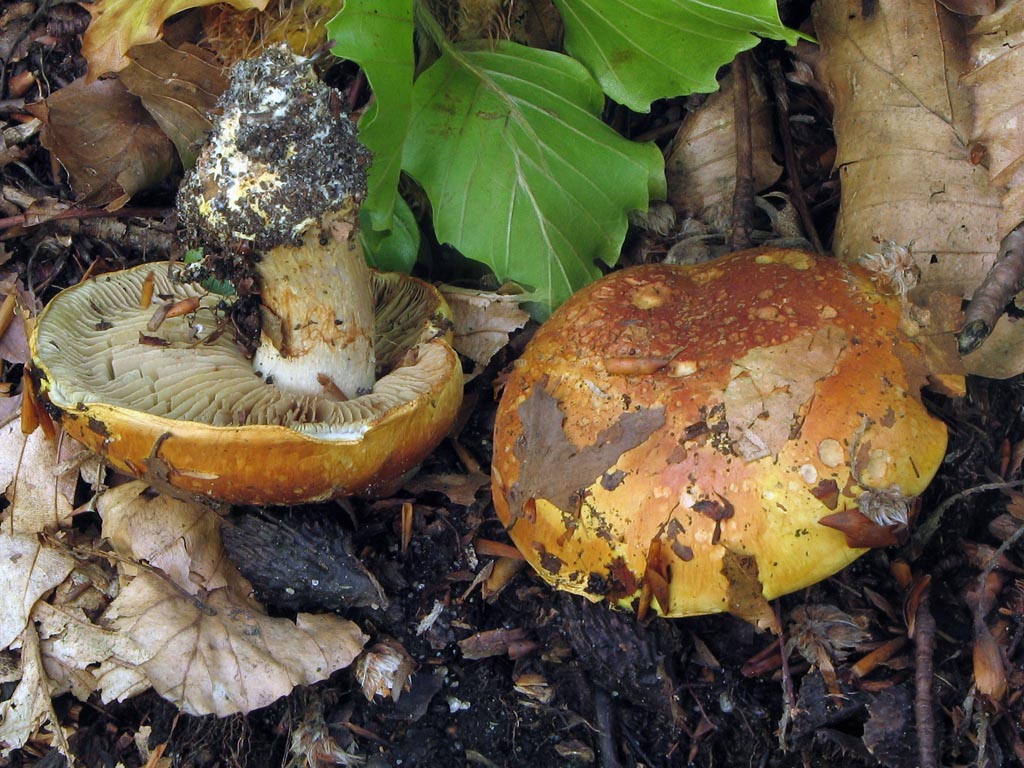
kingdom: Fungi
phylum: Basidiomycota
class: Agaricomycetes
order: Agaricales
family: Cortinariaceae
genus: Calonarius
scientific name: Calonarius elegantissimus
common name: orangegylden slørhat
